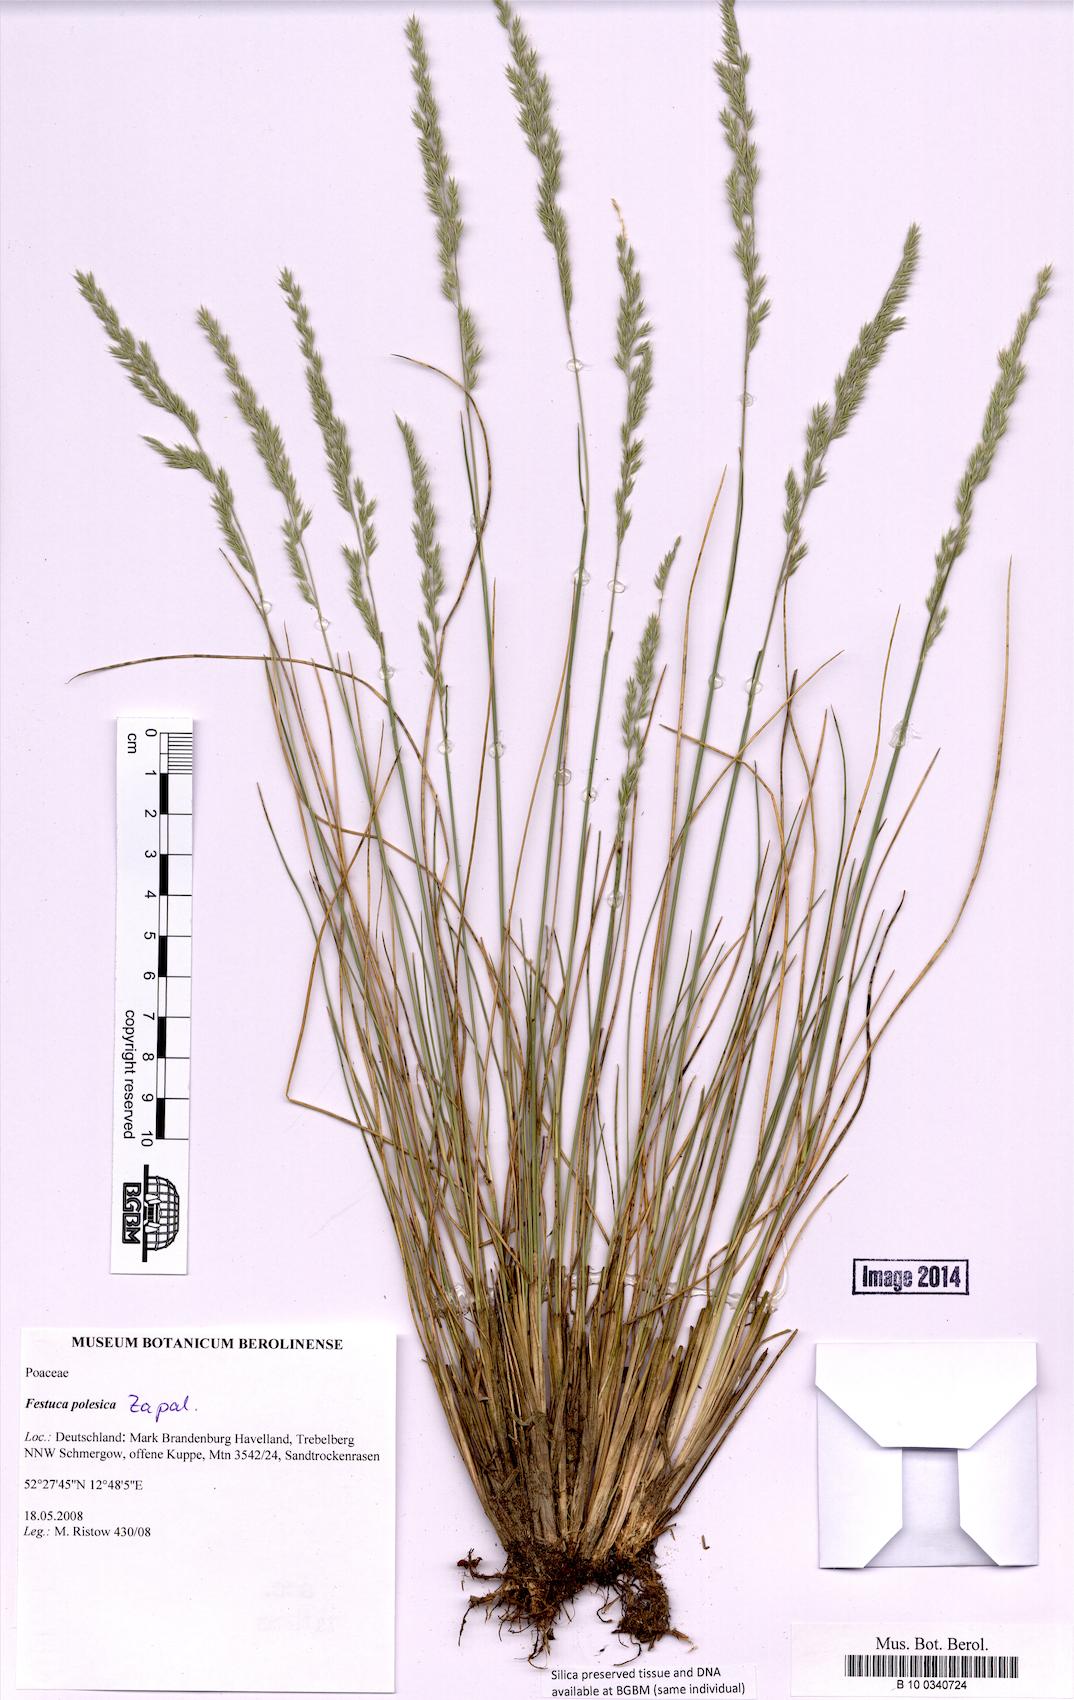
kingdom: Plantae
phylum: Tracheophyta
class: Liliopsida
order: Poales
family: Poaceae
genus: Festuca
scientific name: Festuca beckeri
